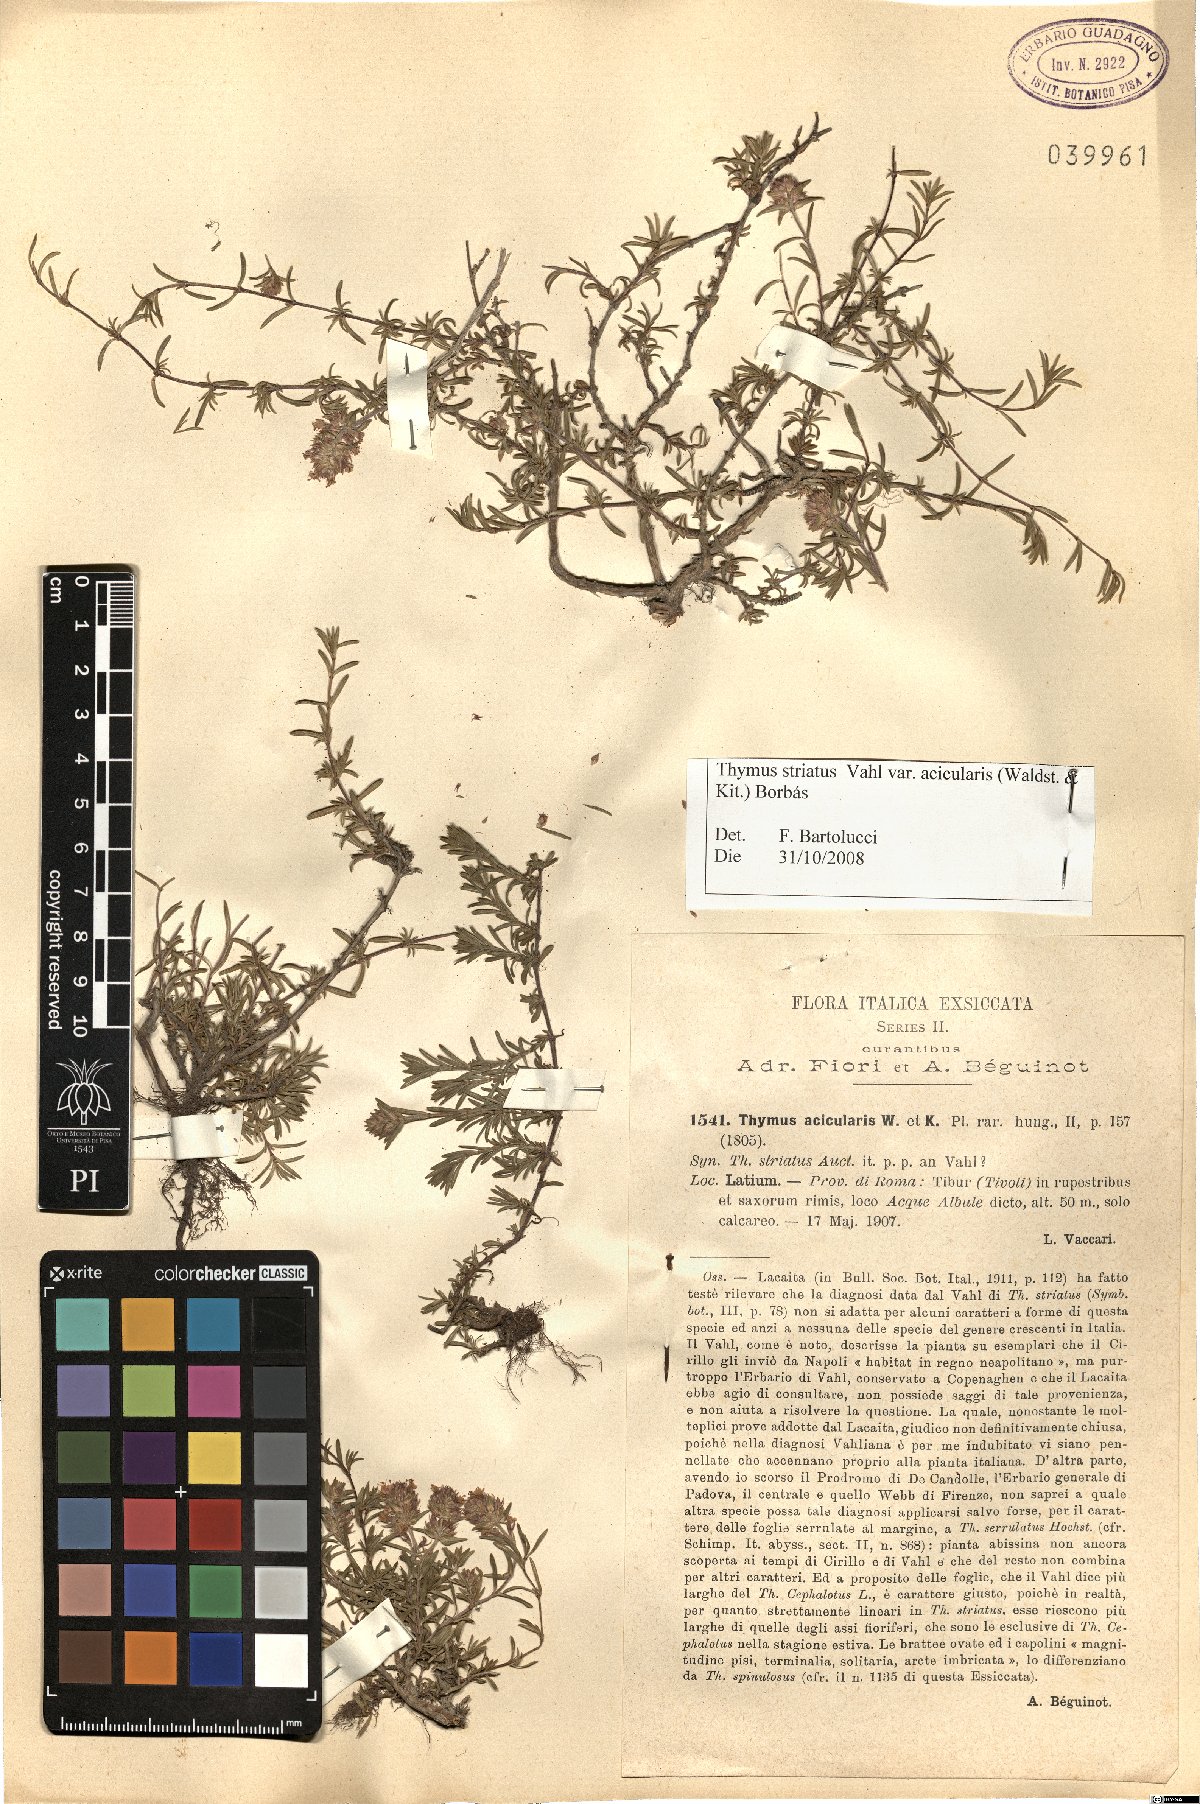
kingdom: Plantae
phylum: Tracheophyta
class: Magnoliopsida
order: Lamiales
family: Lamiaceae
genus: Thymus
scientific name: Thymus striatus
